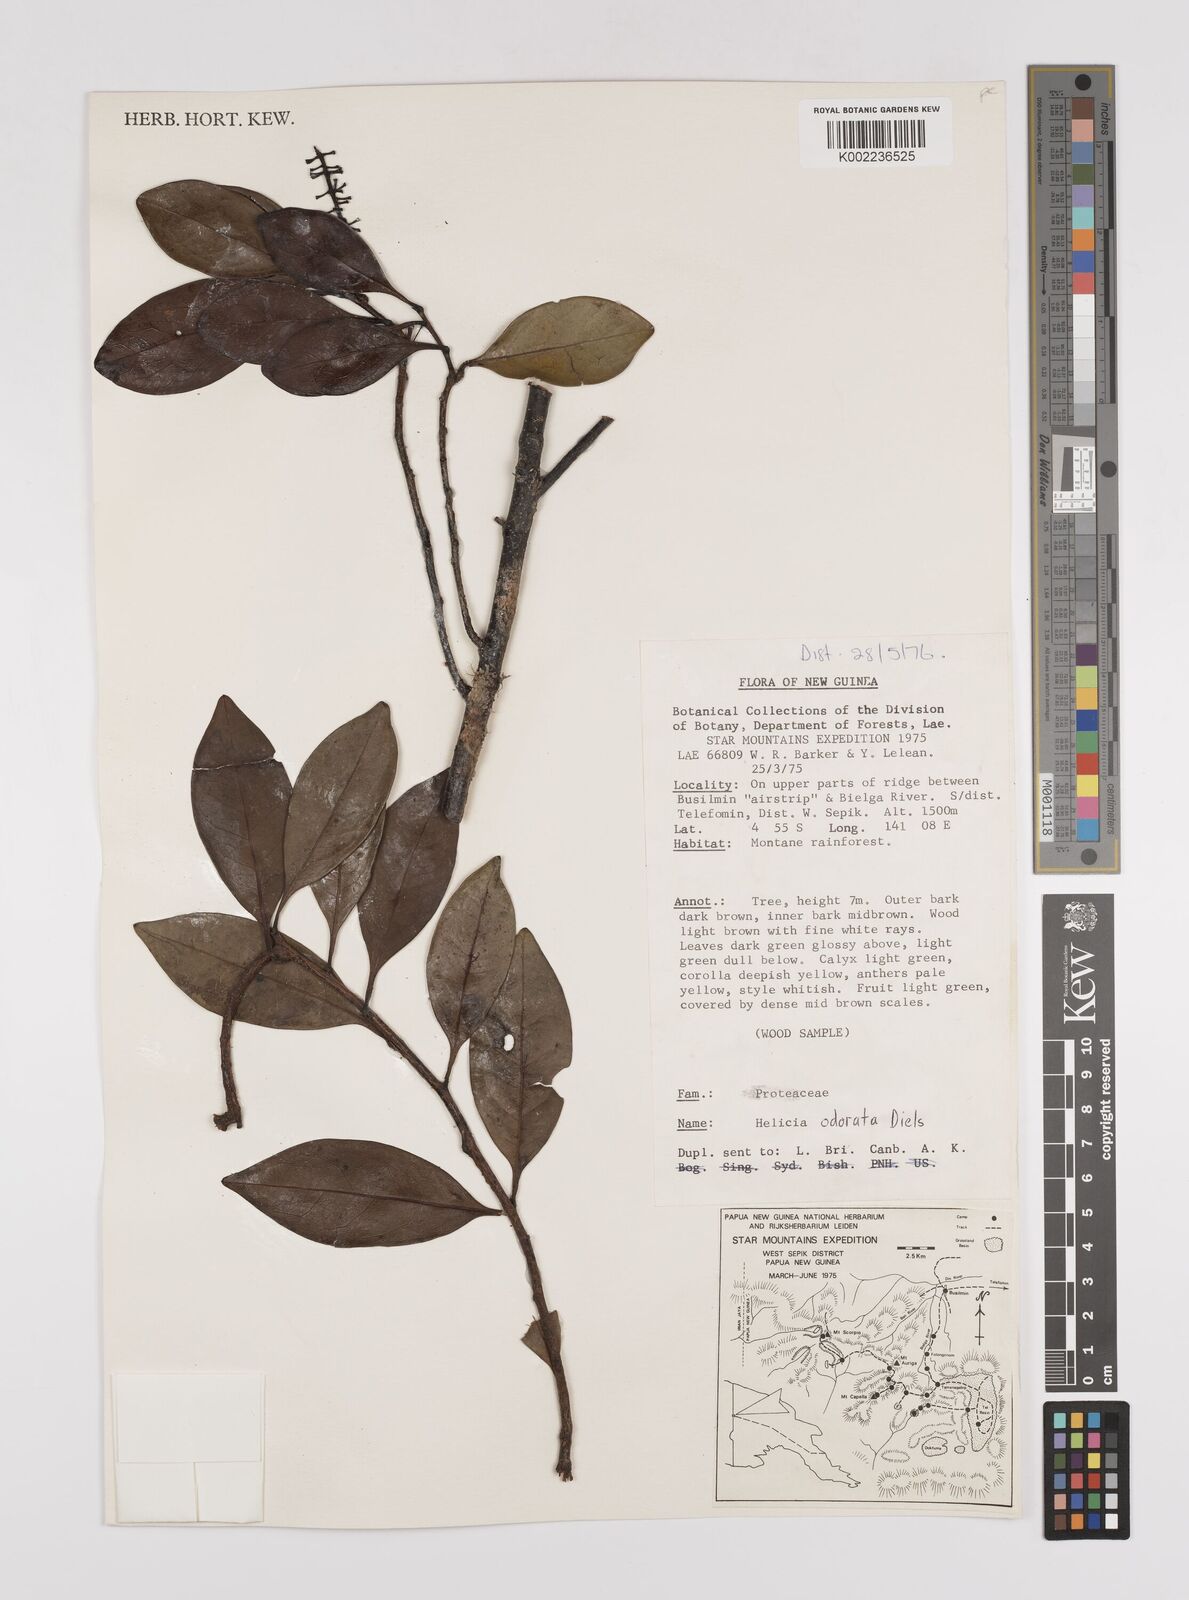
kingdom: Plantae
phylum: Tracheophyta
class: Magnoliopsida
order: Proteales
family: Proteaceae
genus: Helicia
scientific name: Helicia odorata
